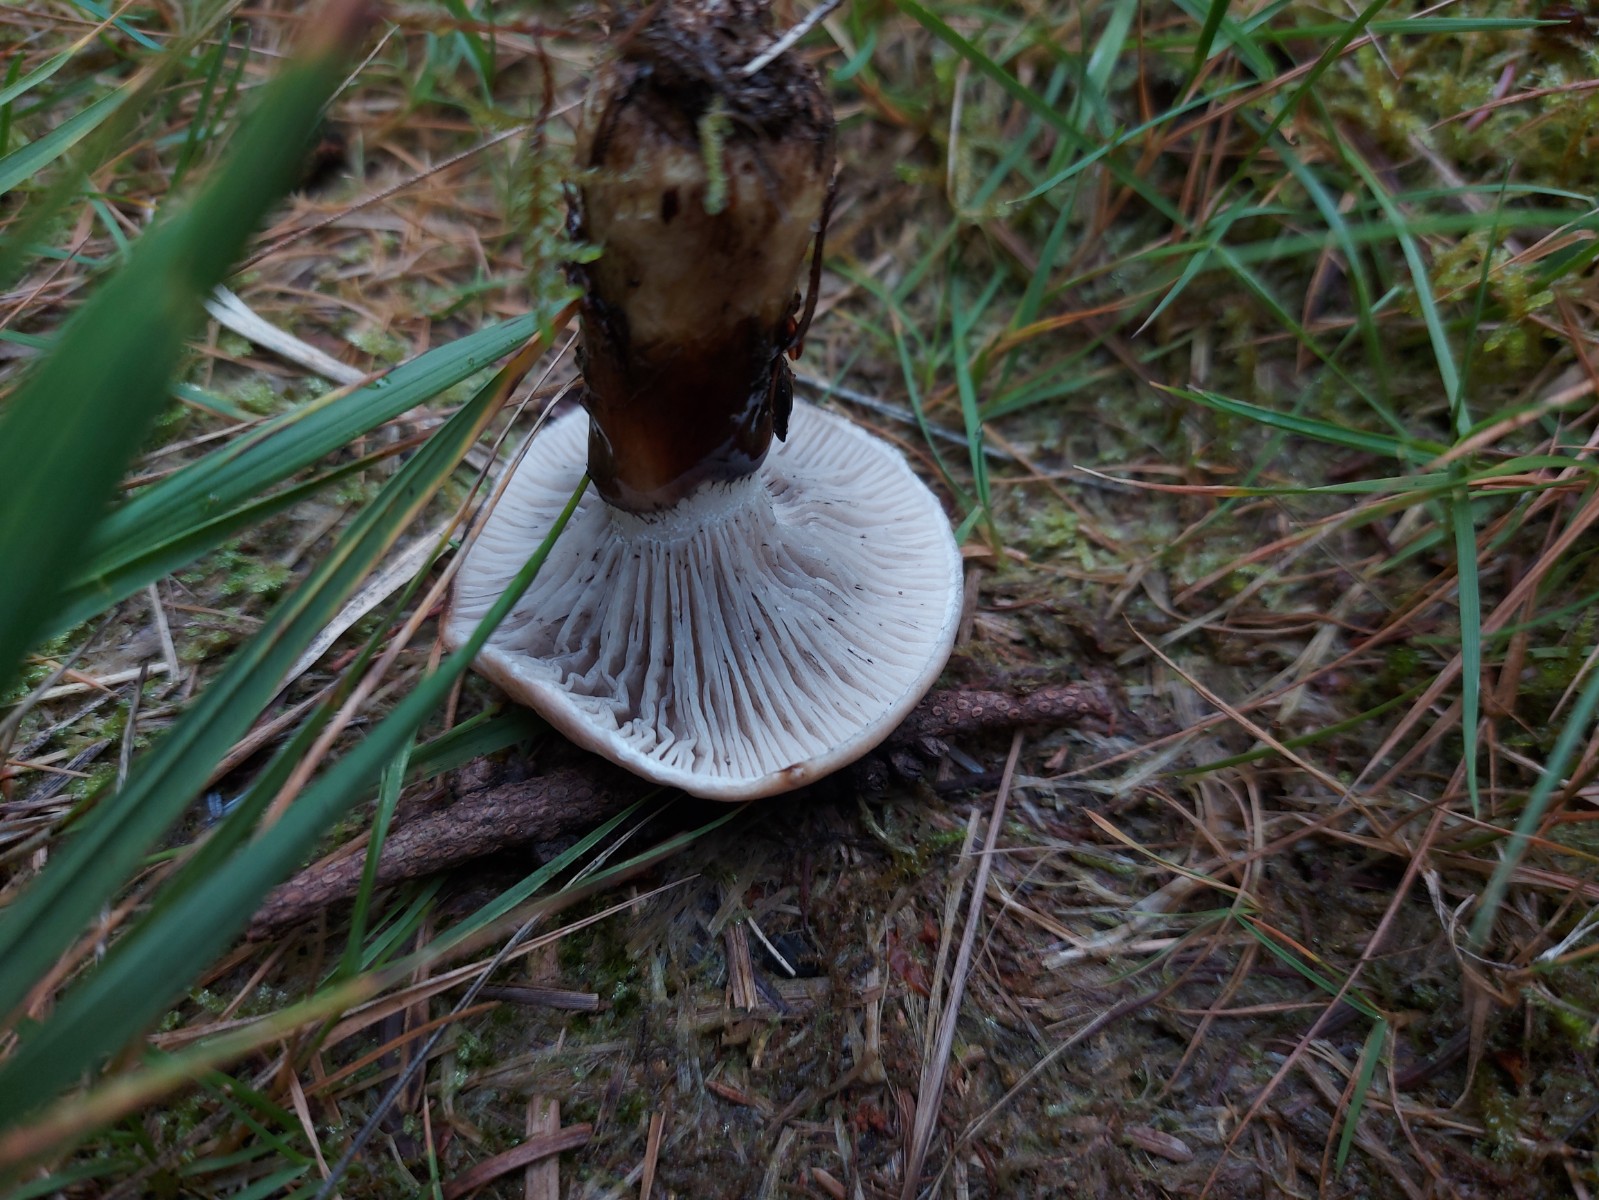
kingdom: Fungi
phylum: Basidiomycota
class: Agaricomycetes
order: Boletales
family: Gomphidiaceae
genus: Gomphidius
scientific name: Gomphidius glutinosus
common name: grå slimslør
